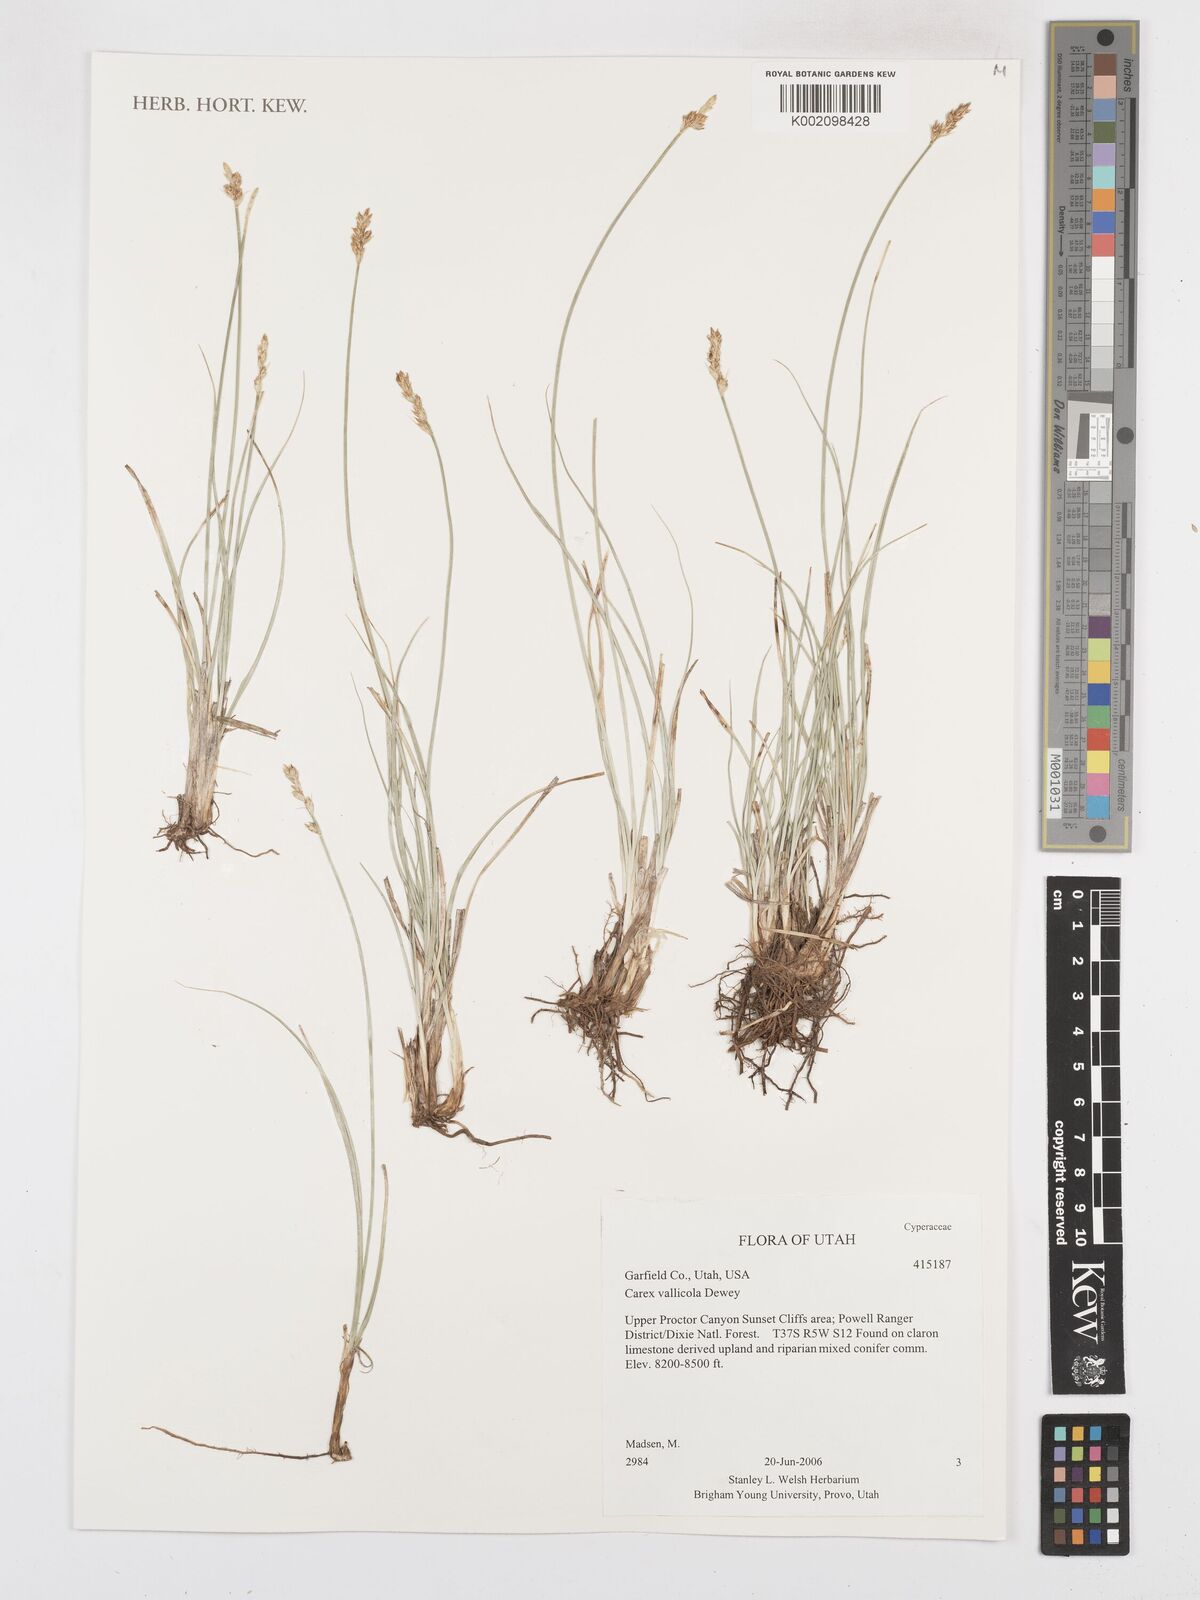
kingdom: Plantae
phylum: Tracheophyta
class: Liliopsida
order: Poales
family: Cyperaceae
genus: Carex
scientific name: Carex vallicola
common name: Valley sedge
